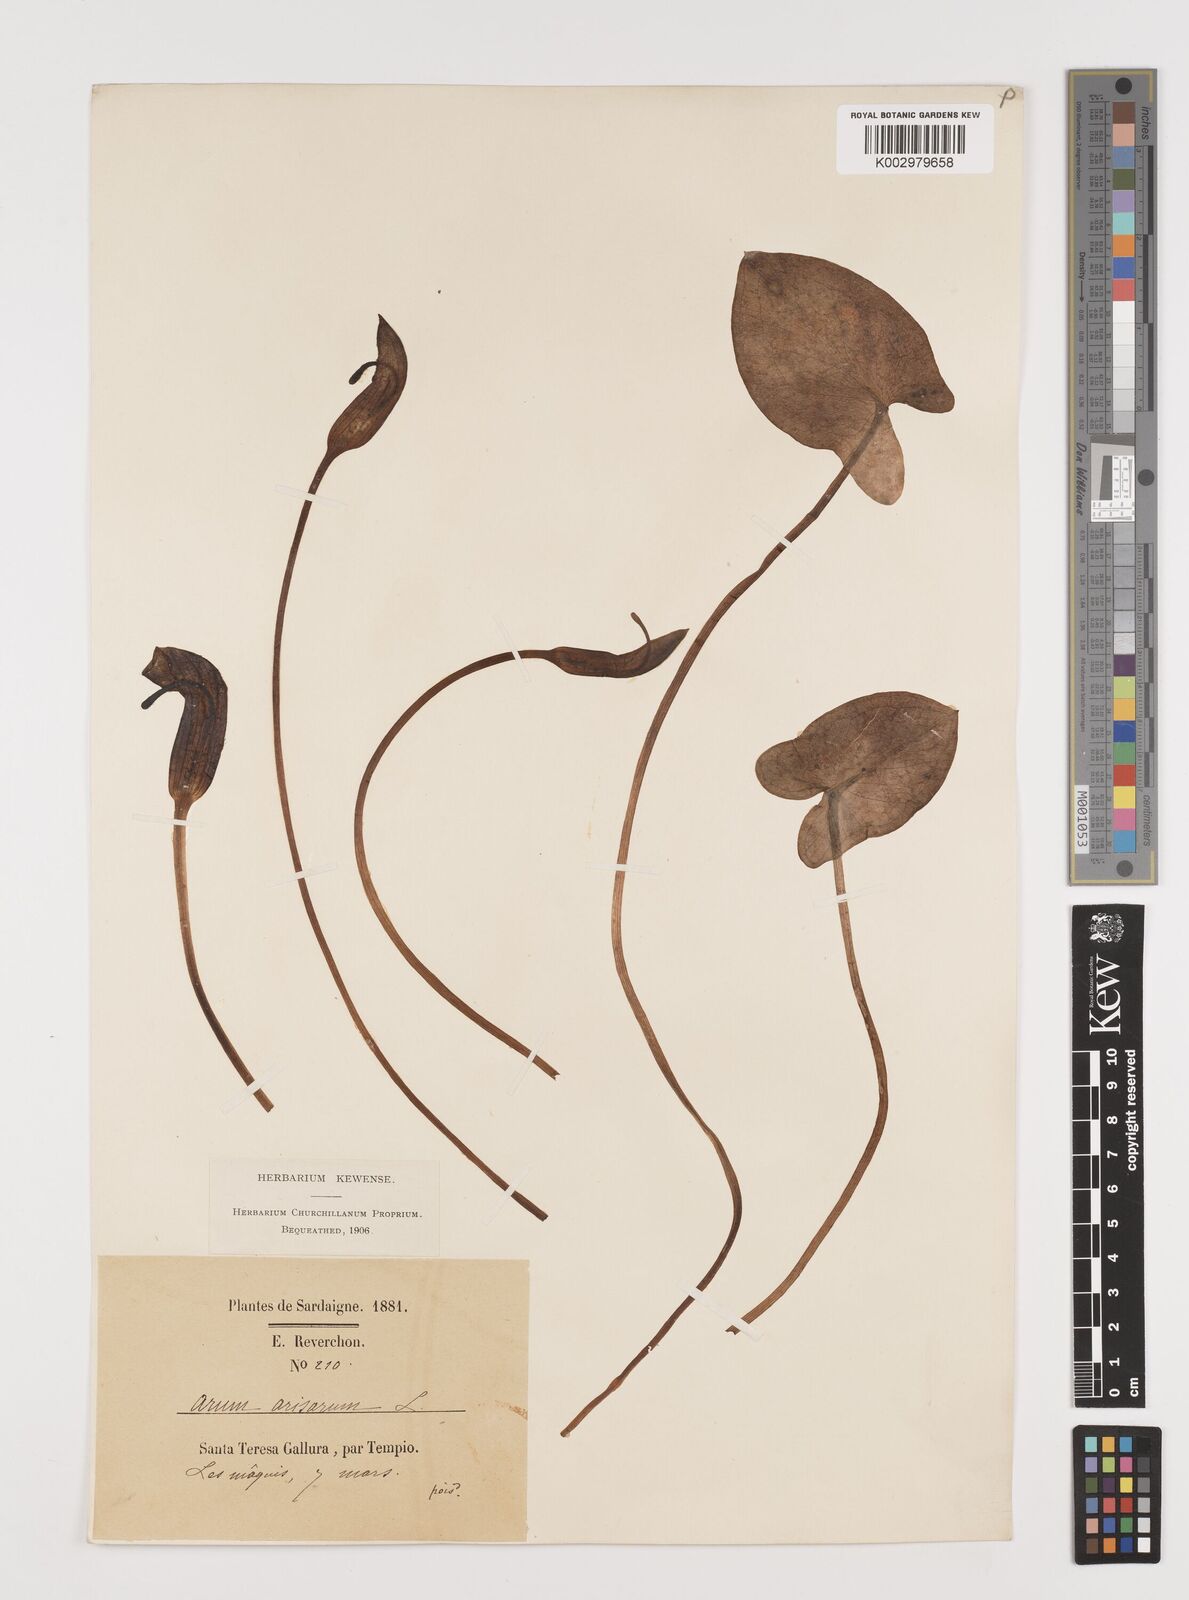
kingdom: Plantae
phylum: Tracheophyta
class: Liliopsida
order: Alismatales
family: Araceae
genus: Arisarum
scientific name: Arisarum vulgare
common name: Common arisarum
